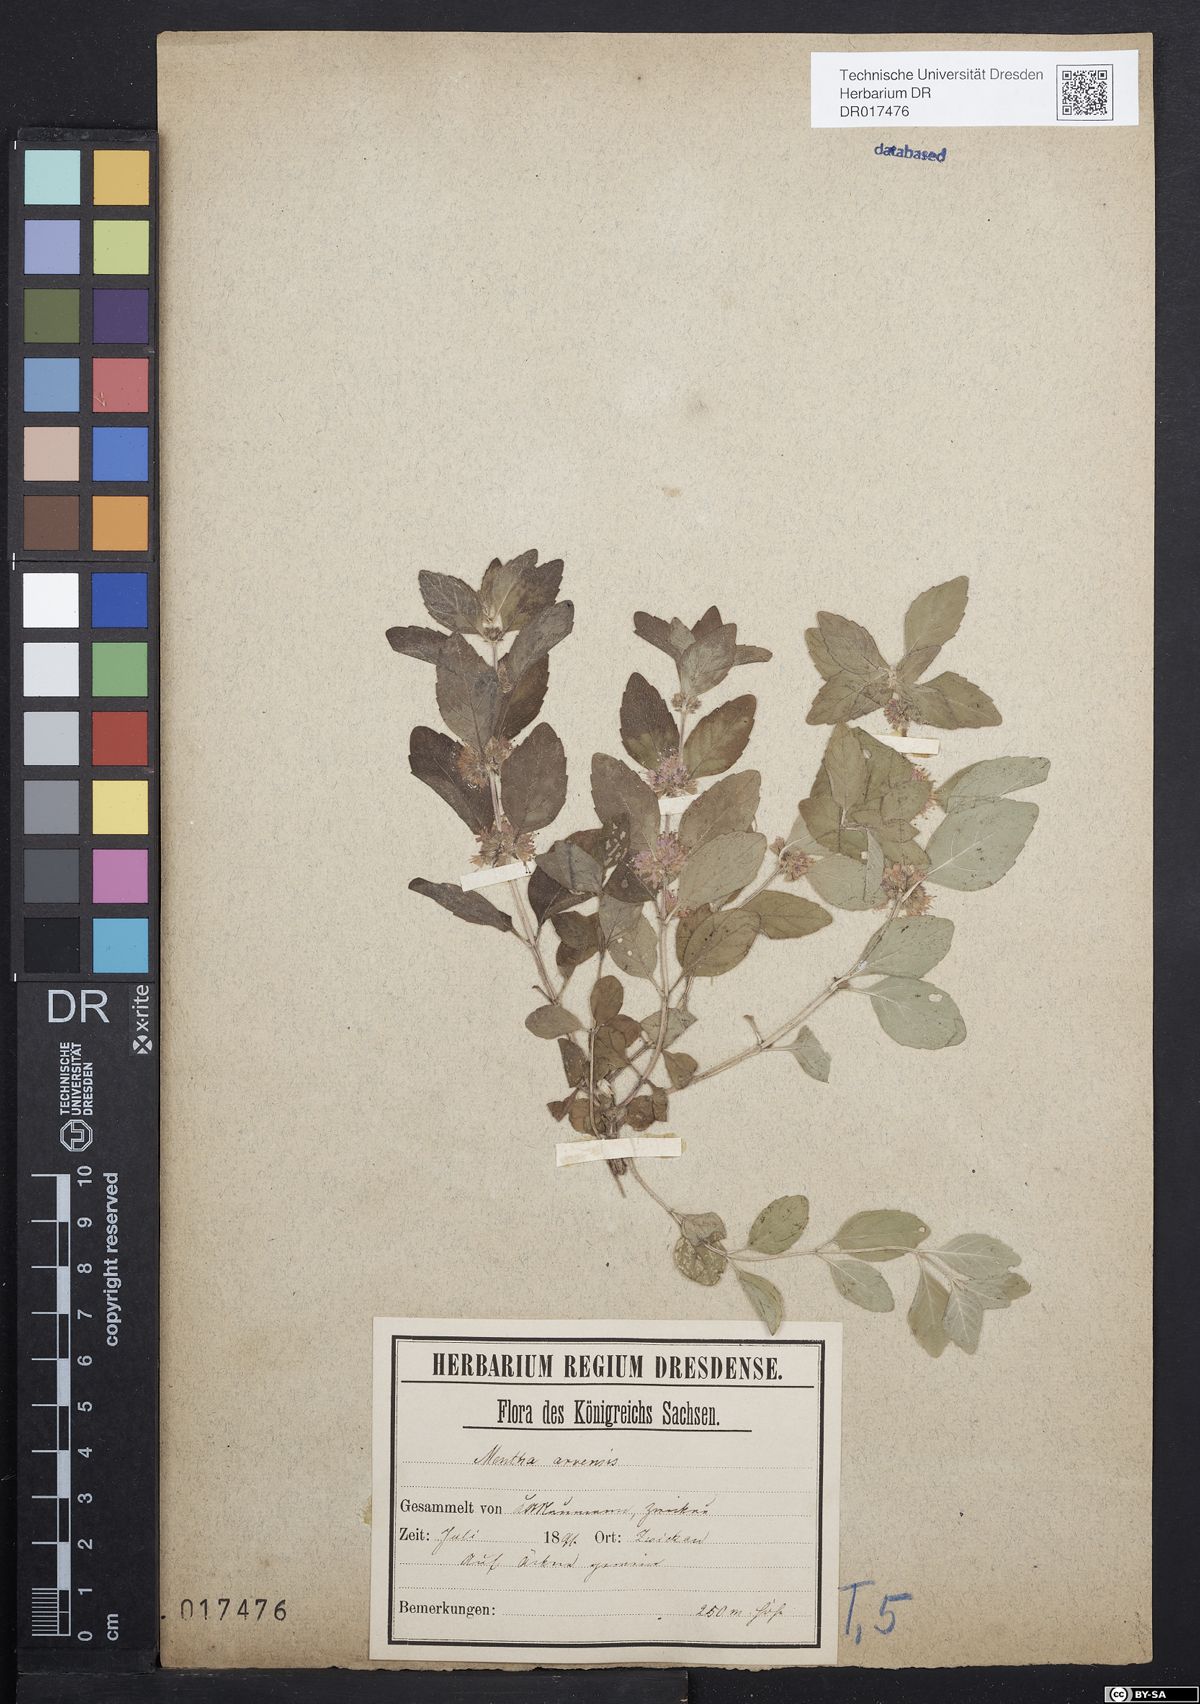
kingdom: Plantae
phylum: Tracheophyta
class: Magnoliopsida
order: Lamiales
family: Lamiaceae
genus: Mentha
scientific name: Mentha arvensis
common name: Corn mint
